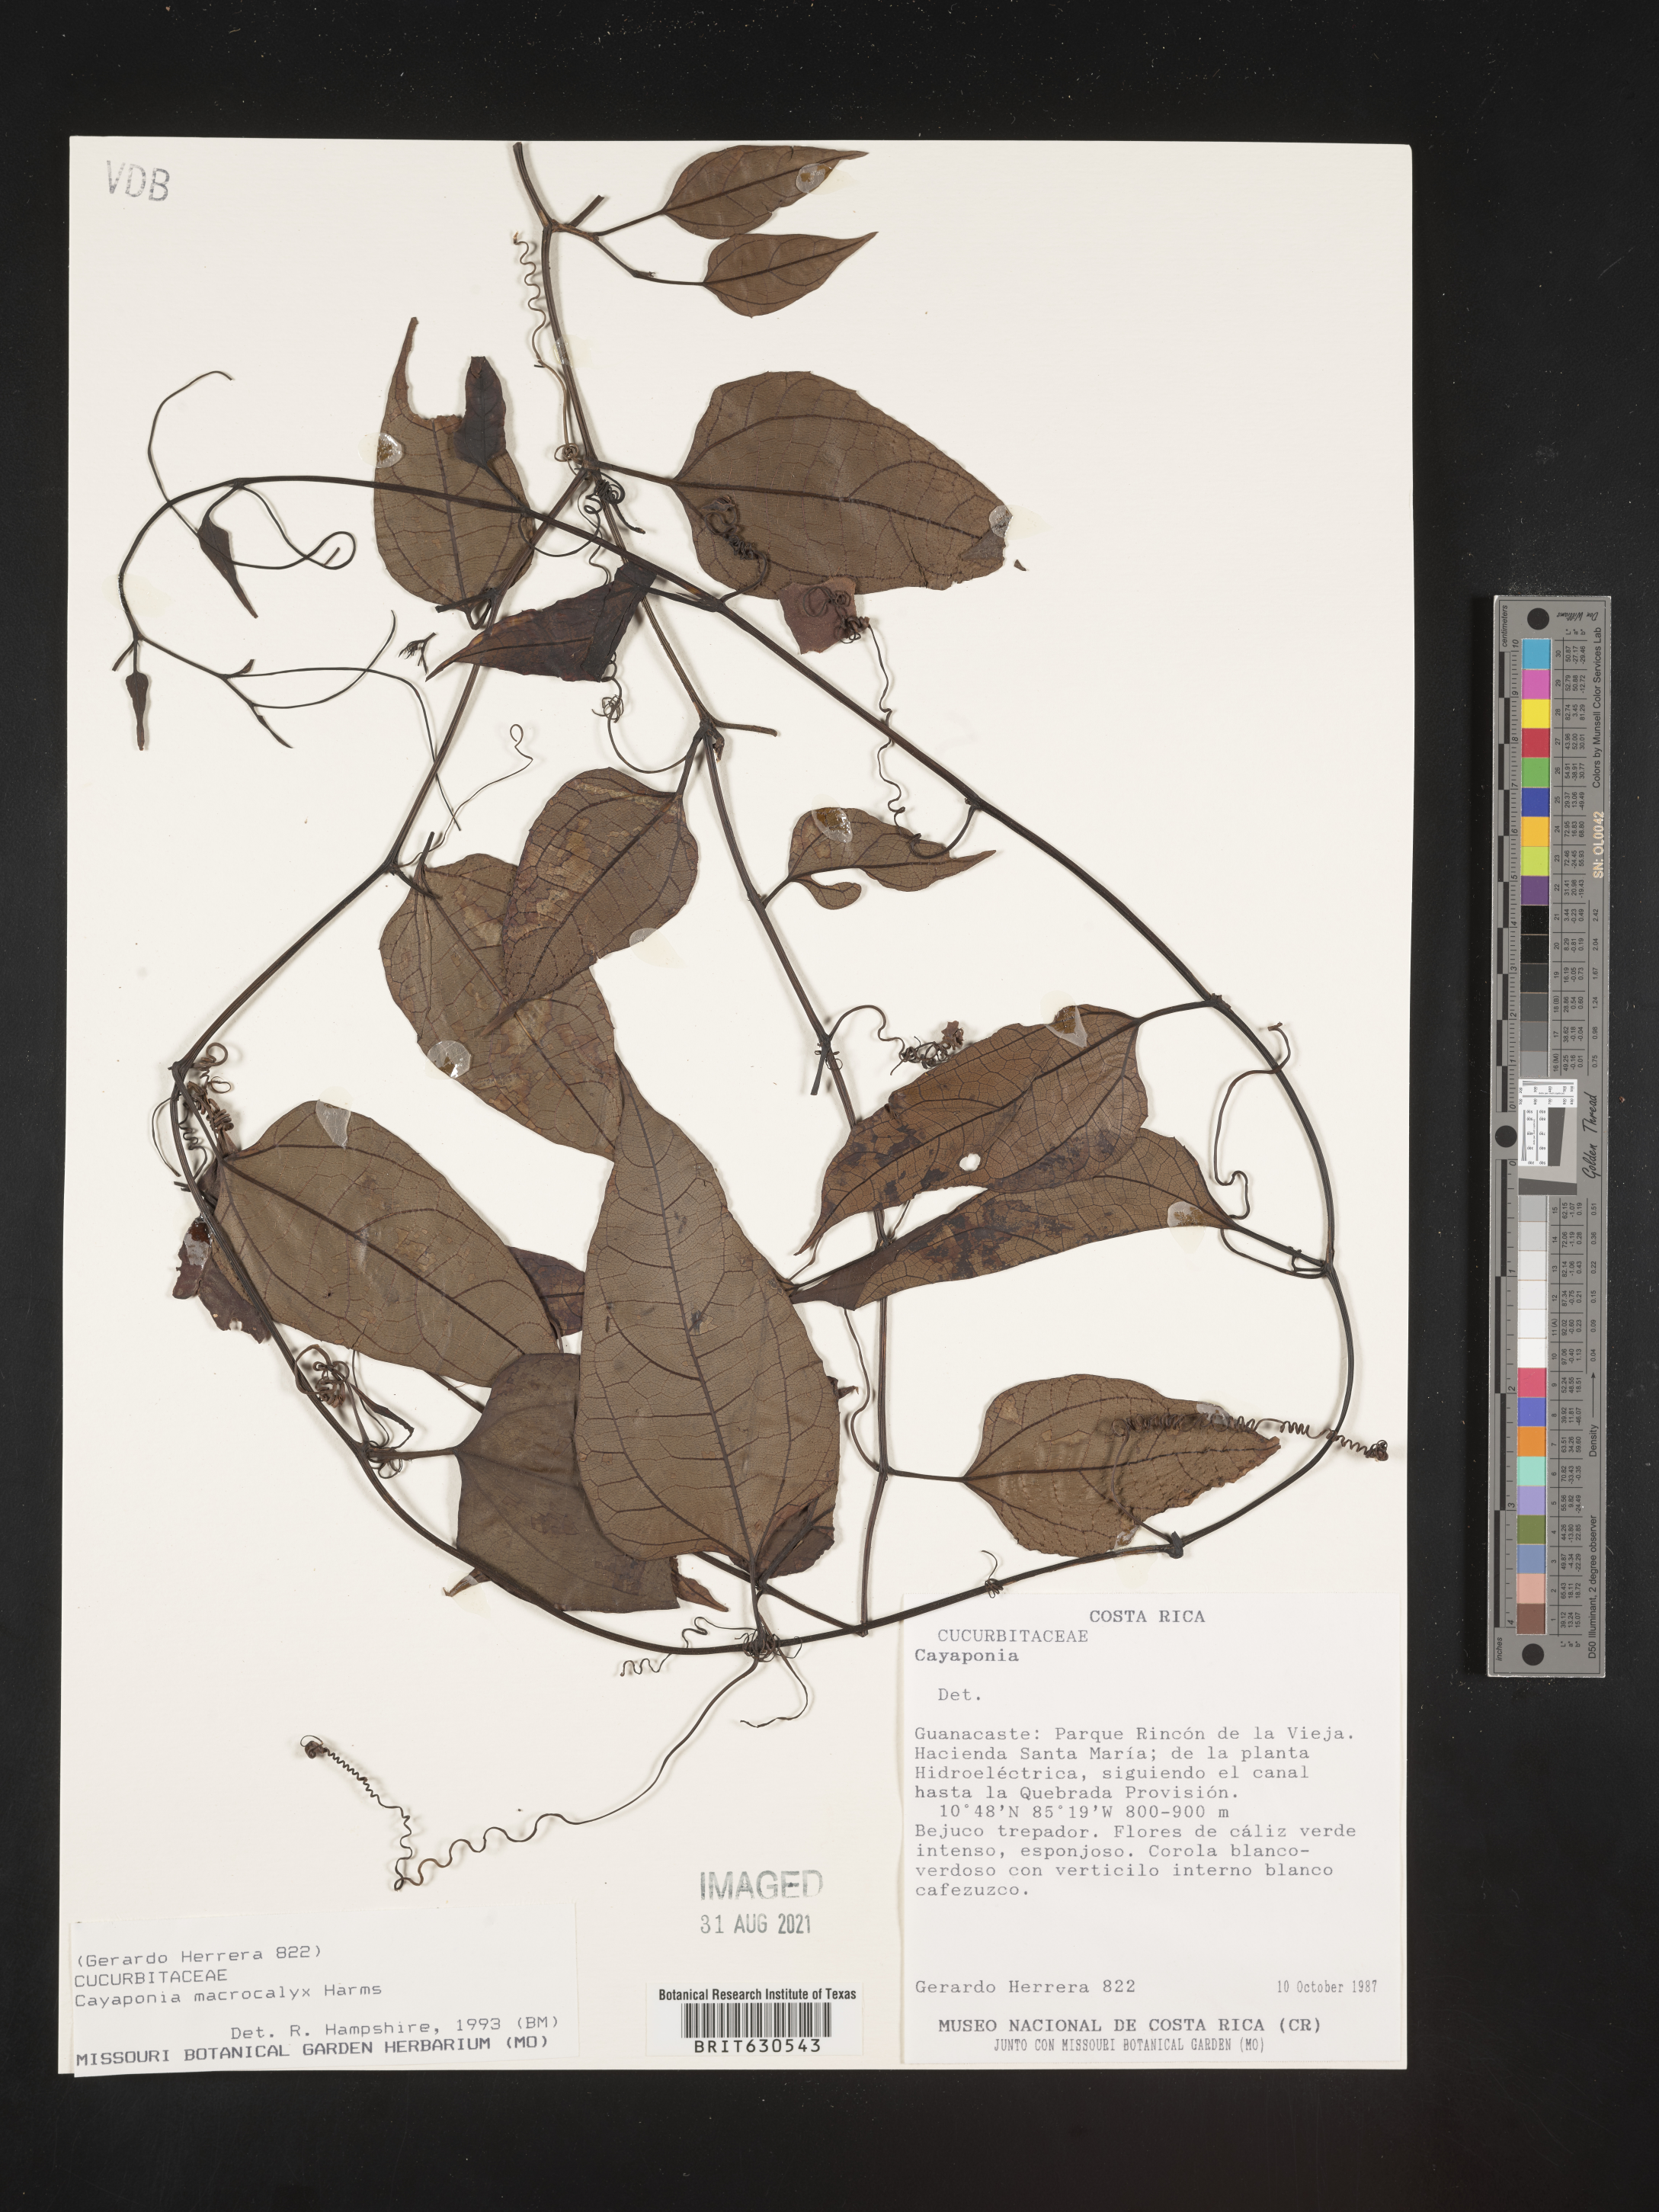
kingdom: Plantae
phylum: Tracheophyta
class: Magnoliopsida
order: Cucurbitales
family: Cucurbitaceae
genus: Cayaponia
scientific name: Cayaponia macrocalyx
